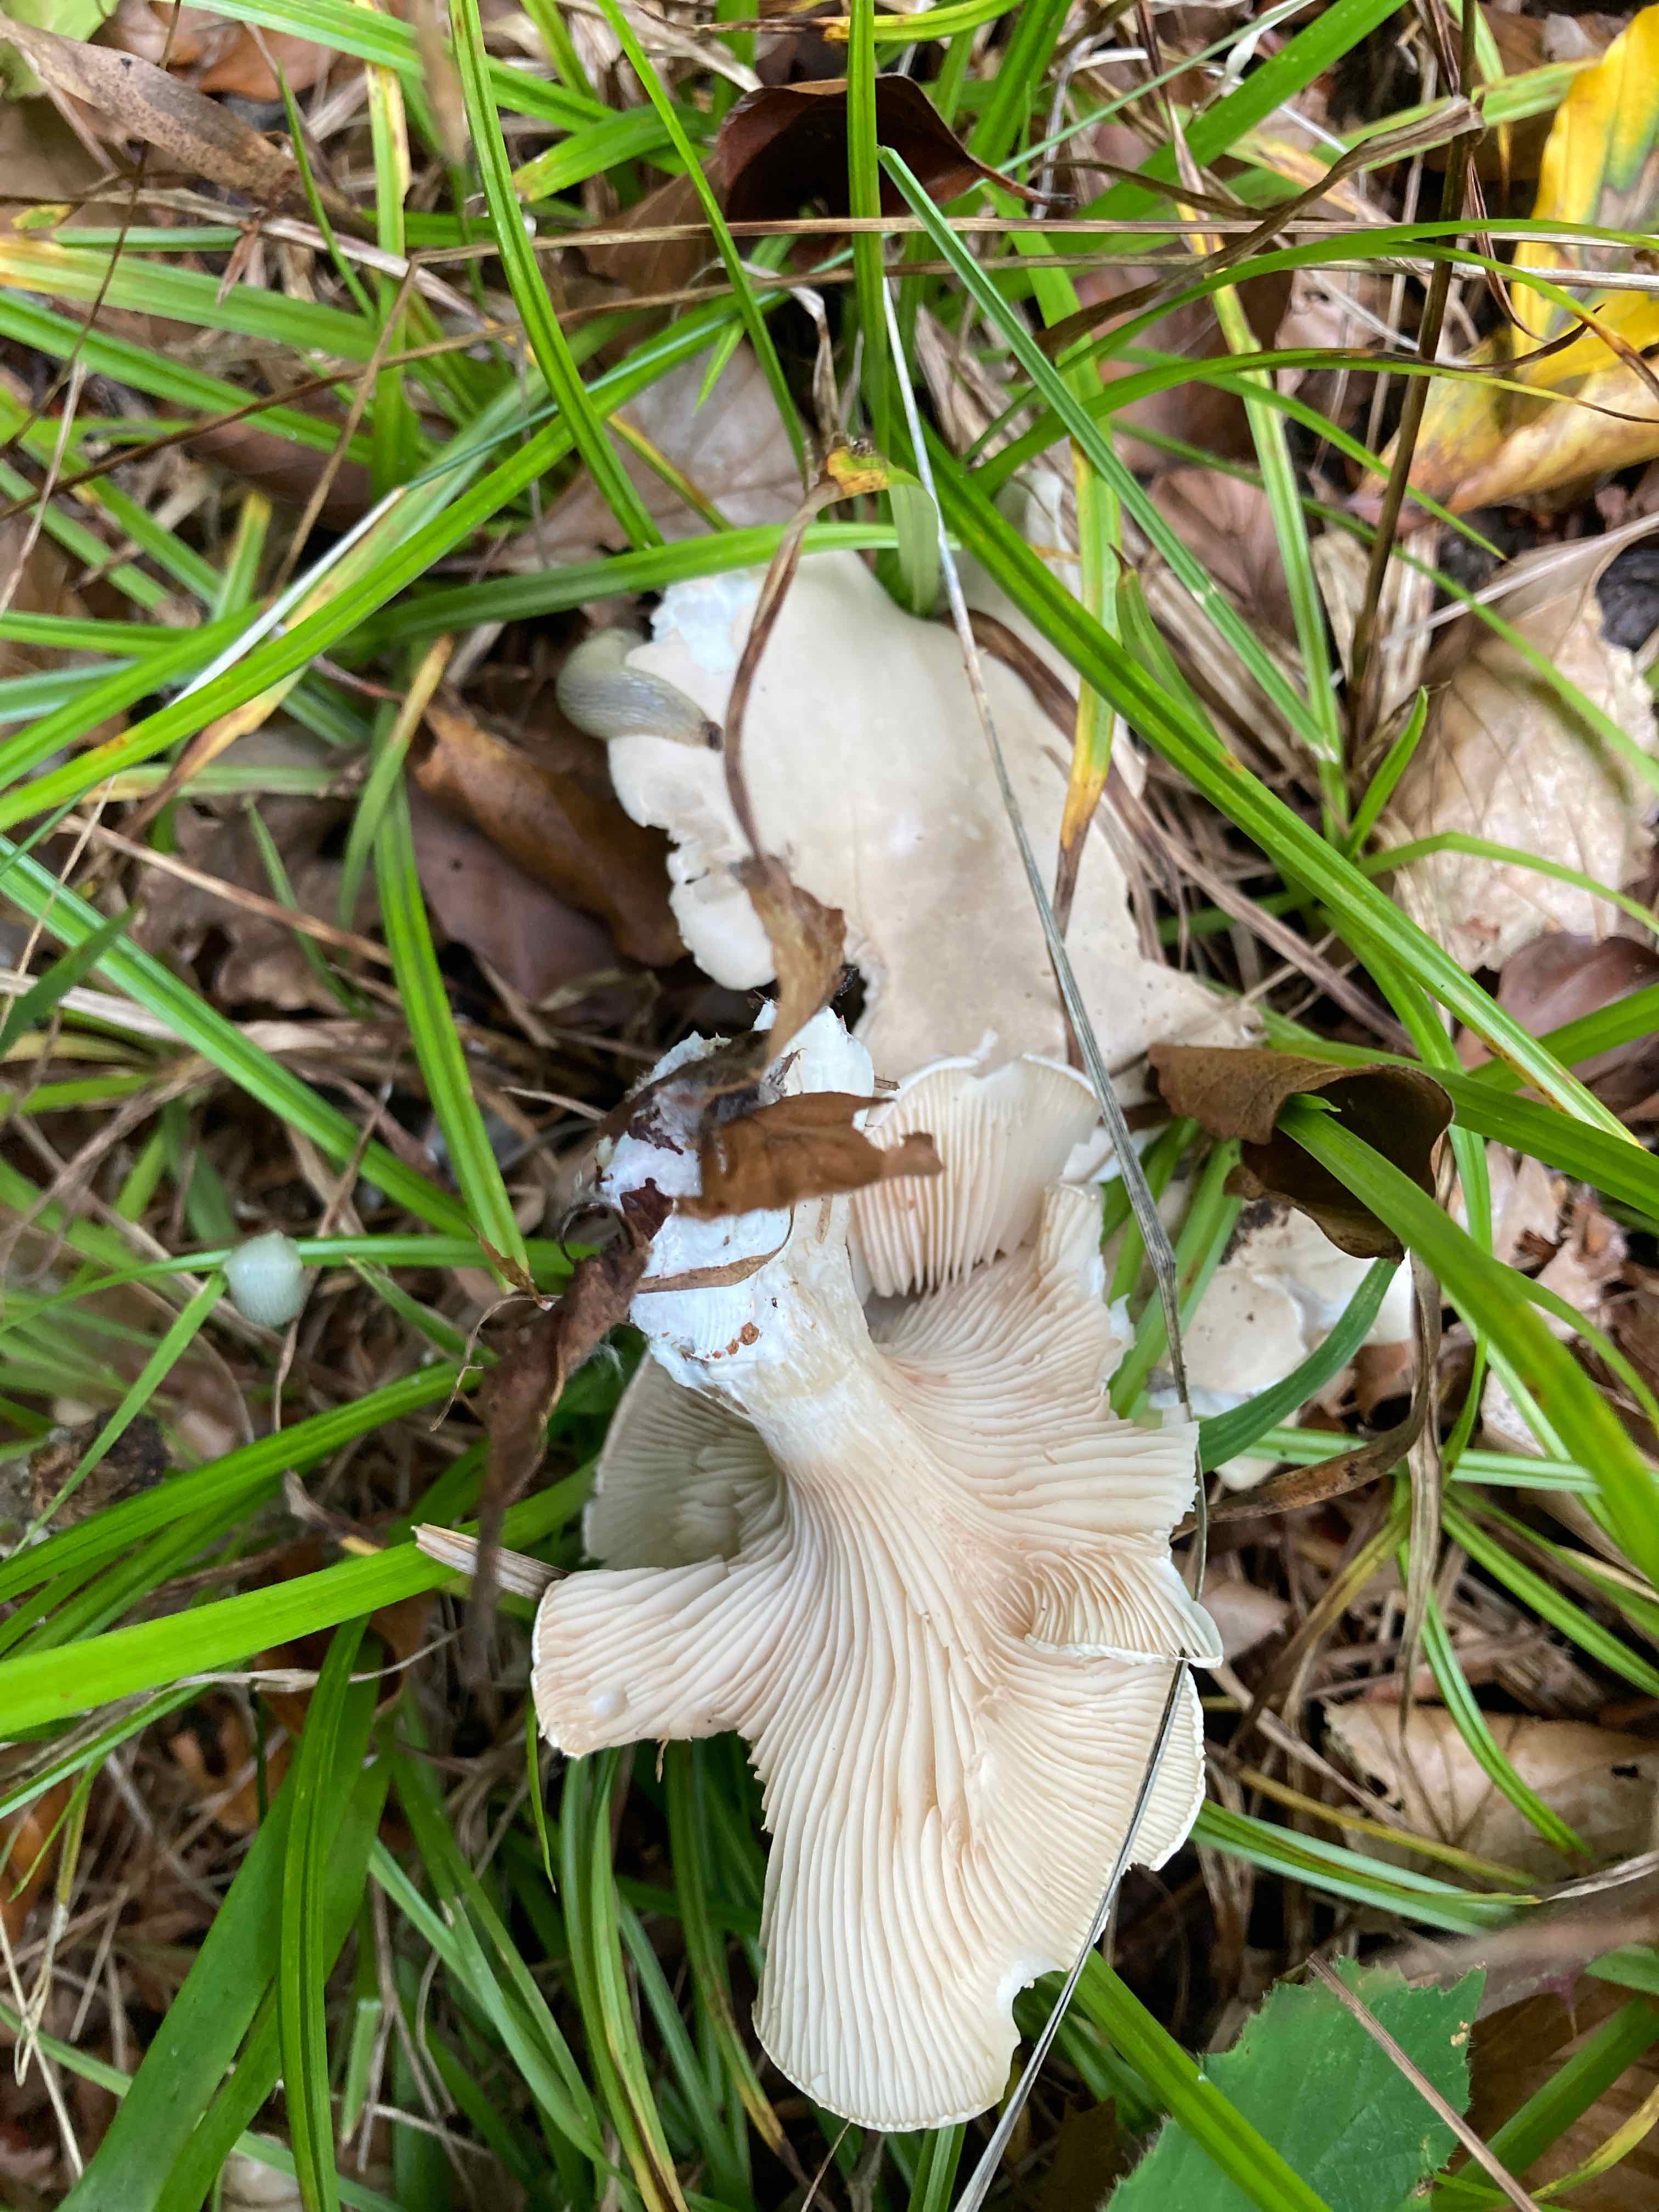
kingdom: Fungi
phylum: Basidiomycota
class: Agaricomycetes
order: Agaricales
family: Entolomataceae
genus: Clitopilus
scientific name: Clitopilus prunulus
